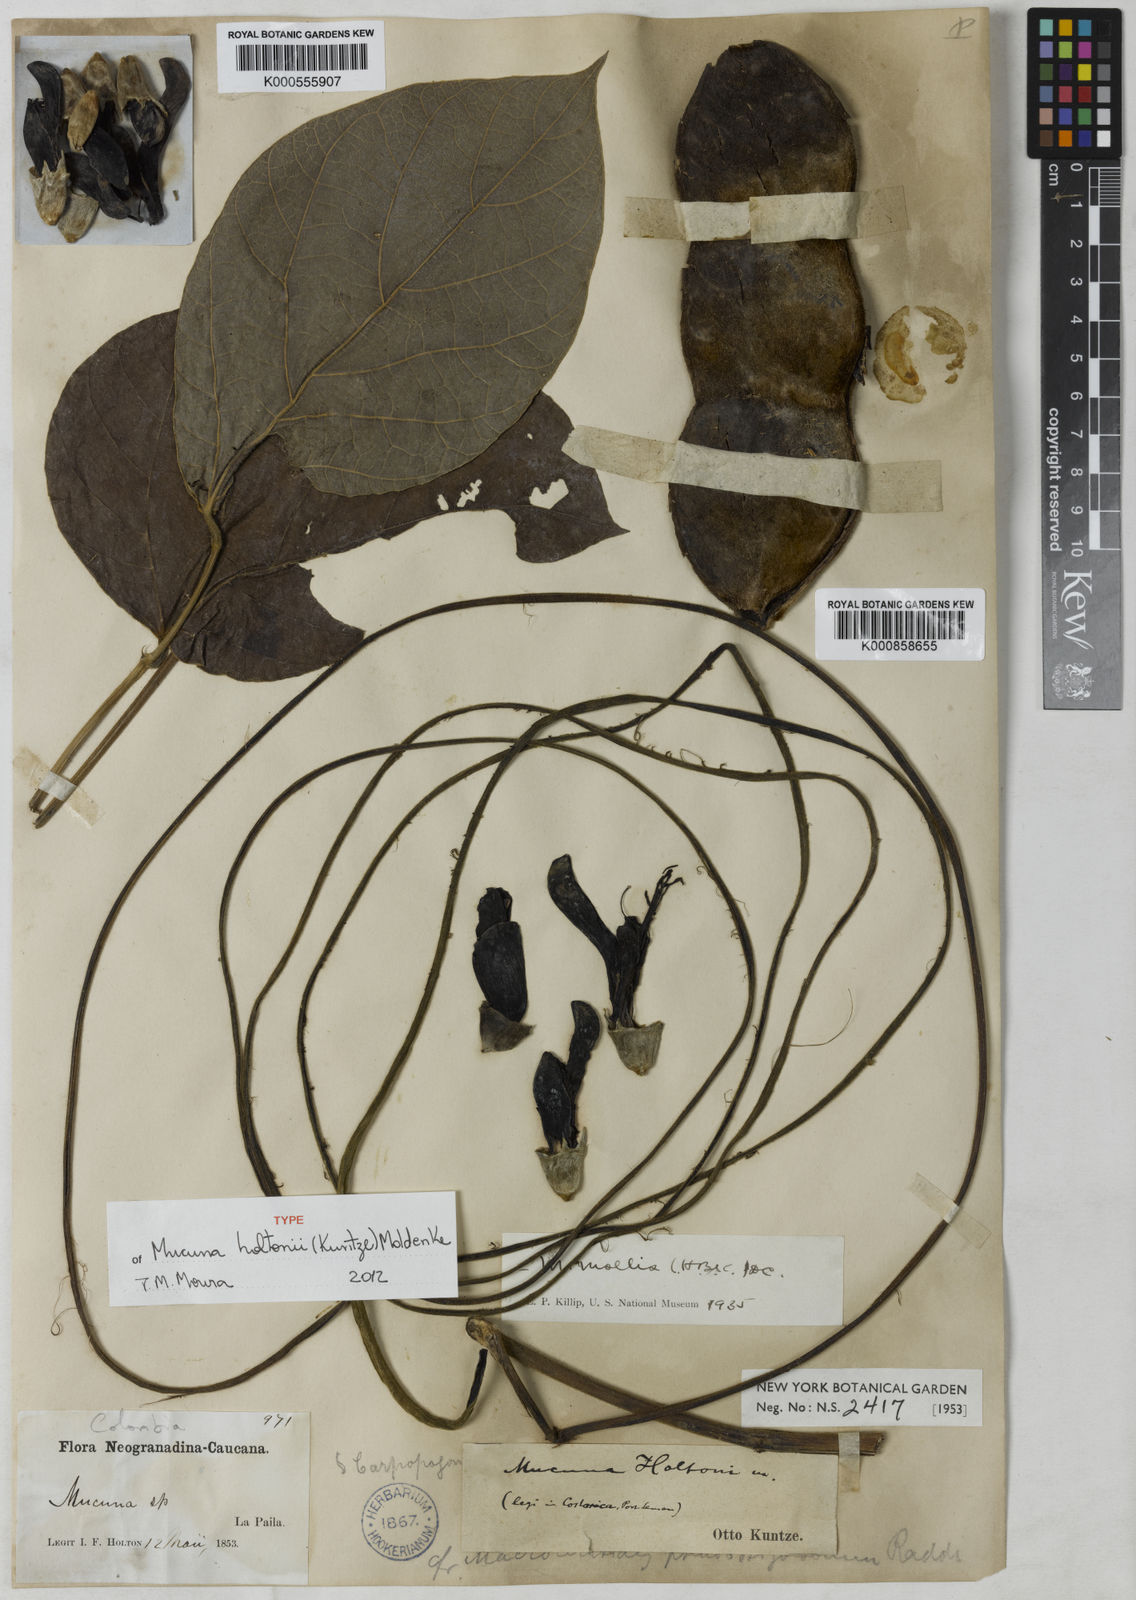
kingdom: Plantae
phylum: Tracheophyta
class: Magnoliopsida
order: Fabales
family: Fabaceae
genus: Mucuna
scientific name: Mucuna holtonii
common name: Hamburger bean
